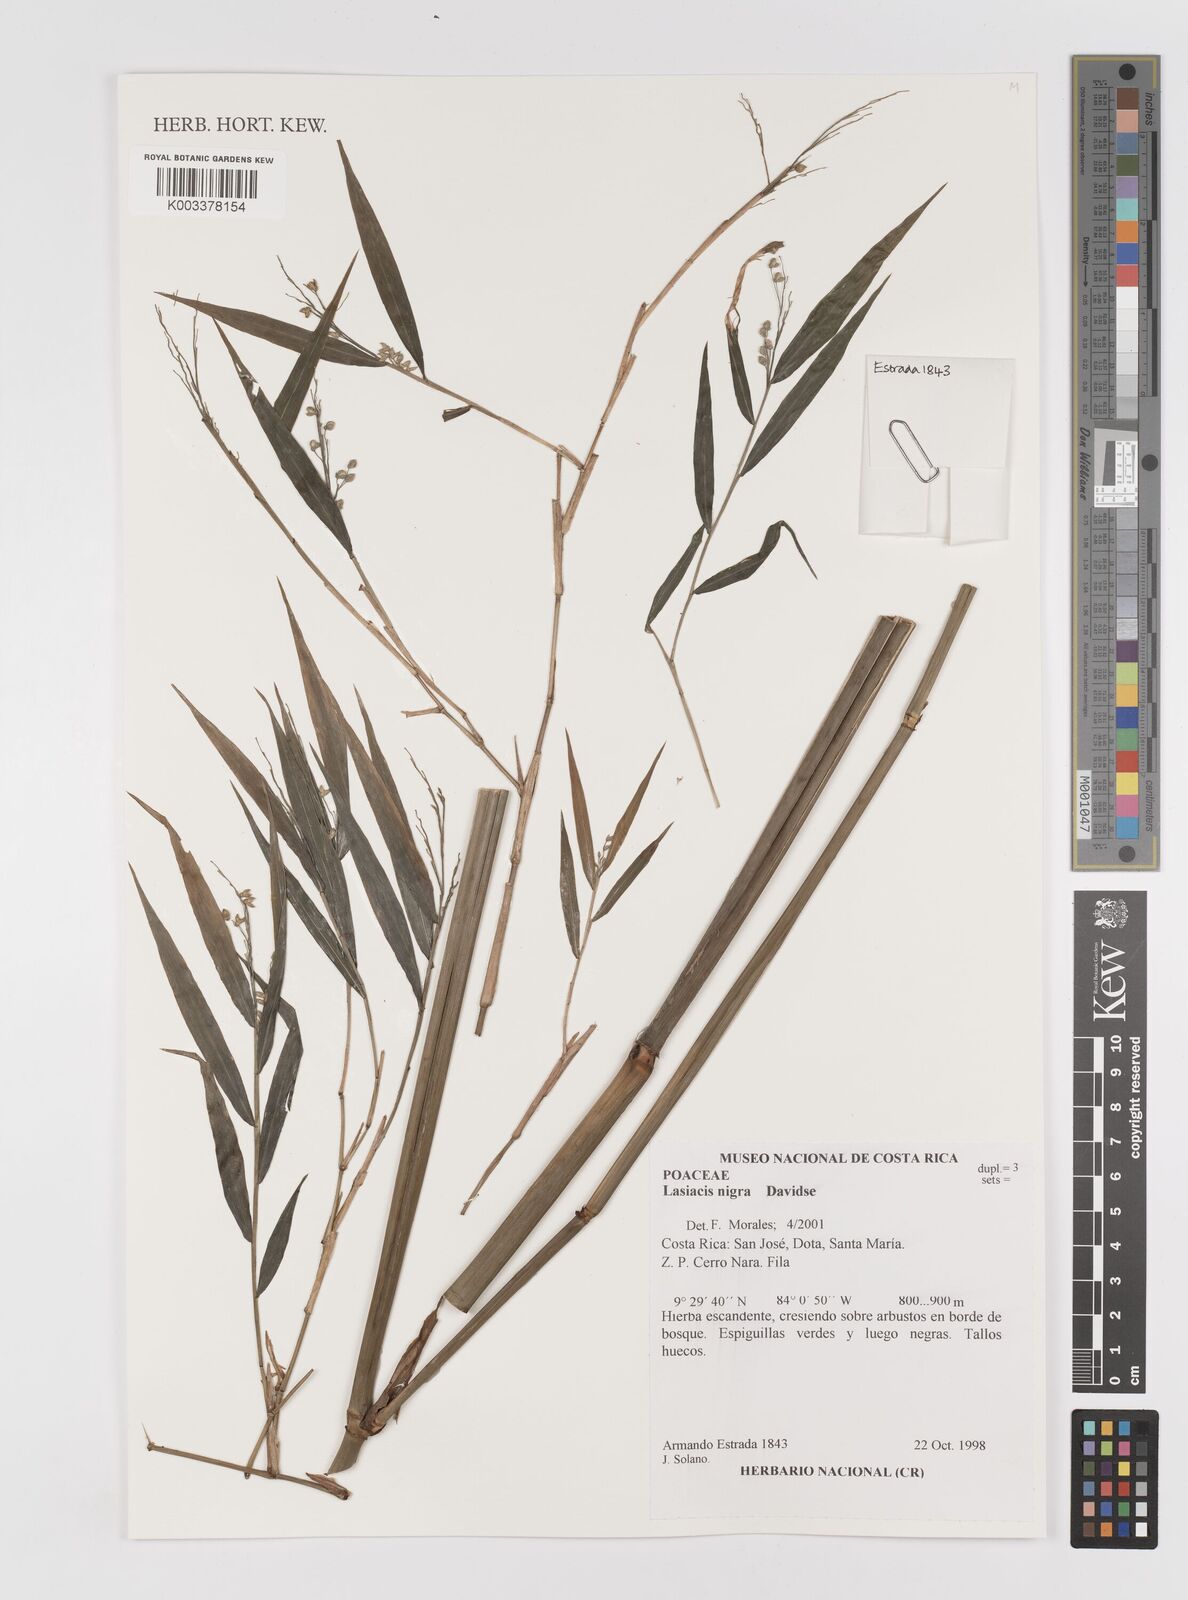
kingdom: Plantae
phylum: Tracheophyta
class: Liliopsida
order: Poales
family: Poaceae
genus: Lasiacis
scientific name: Lasiacis nigra
